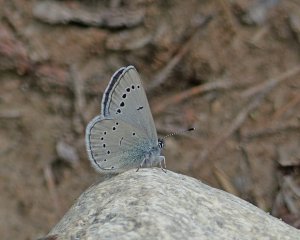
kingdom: Animalia
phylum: Arthropoda
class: Insecta
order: Lepidoptera
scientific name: Lepidoptera
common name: Butterflies
